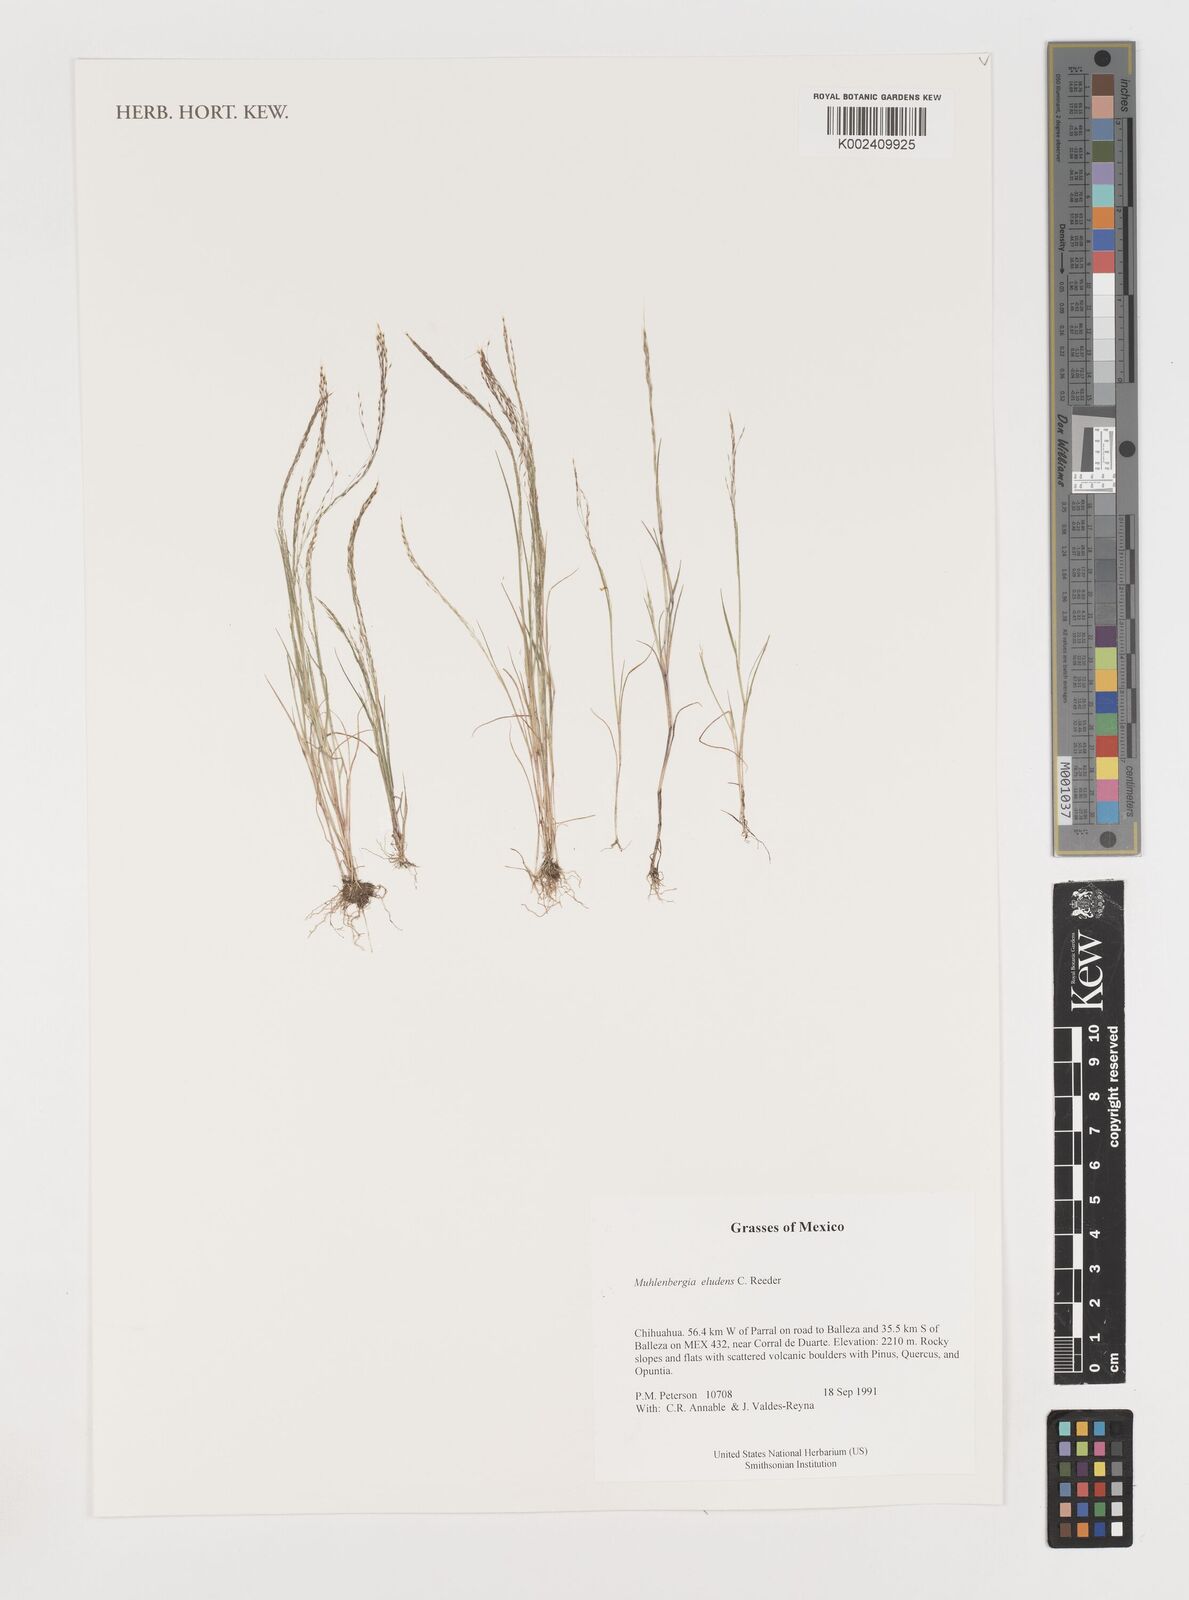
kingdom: Plantae
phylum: Tracheophyta
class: Liliopsida
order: Poales
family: Poaceae
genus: Muhlenbergia
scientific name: Muhlenbergia eludens
